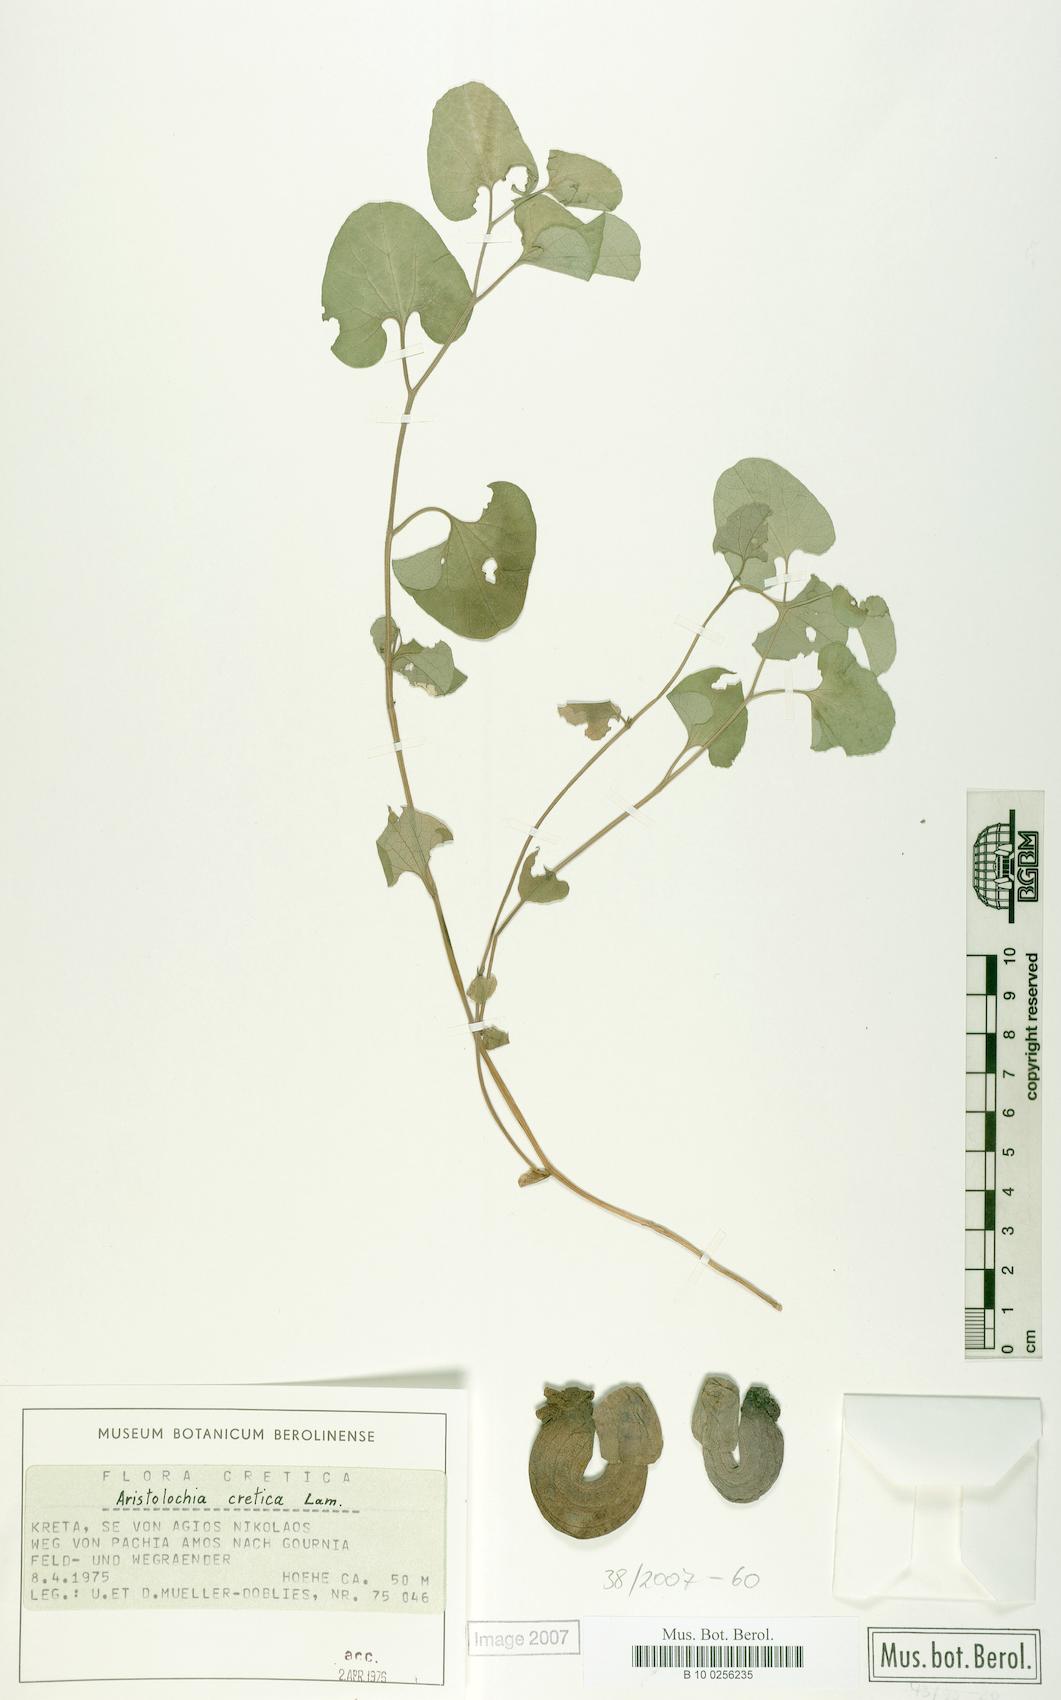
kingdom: Plantae
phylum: Tracheophyta
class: Magnoliopsida
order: Piperales
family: Aristolochiaceae
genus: Aristolochia
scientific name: Aristolochia cretica
